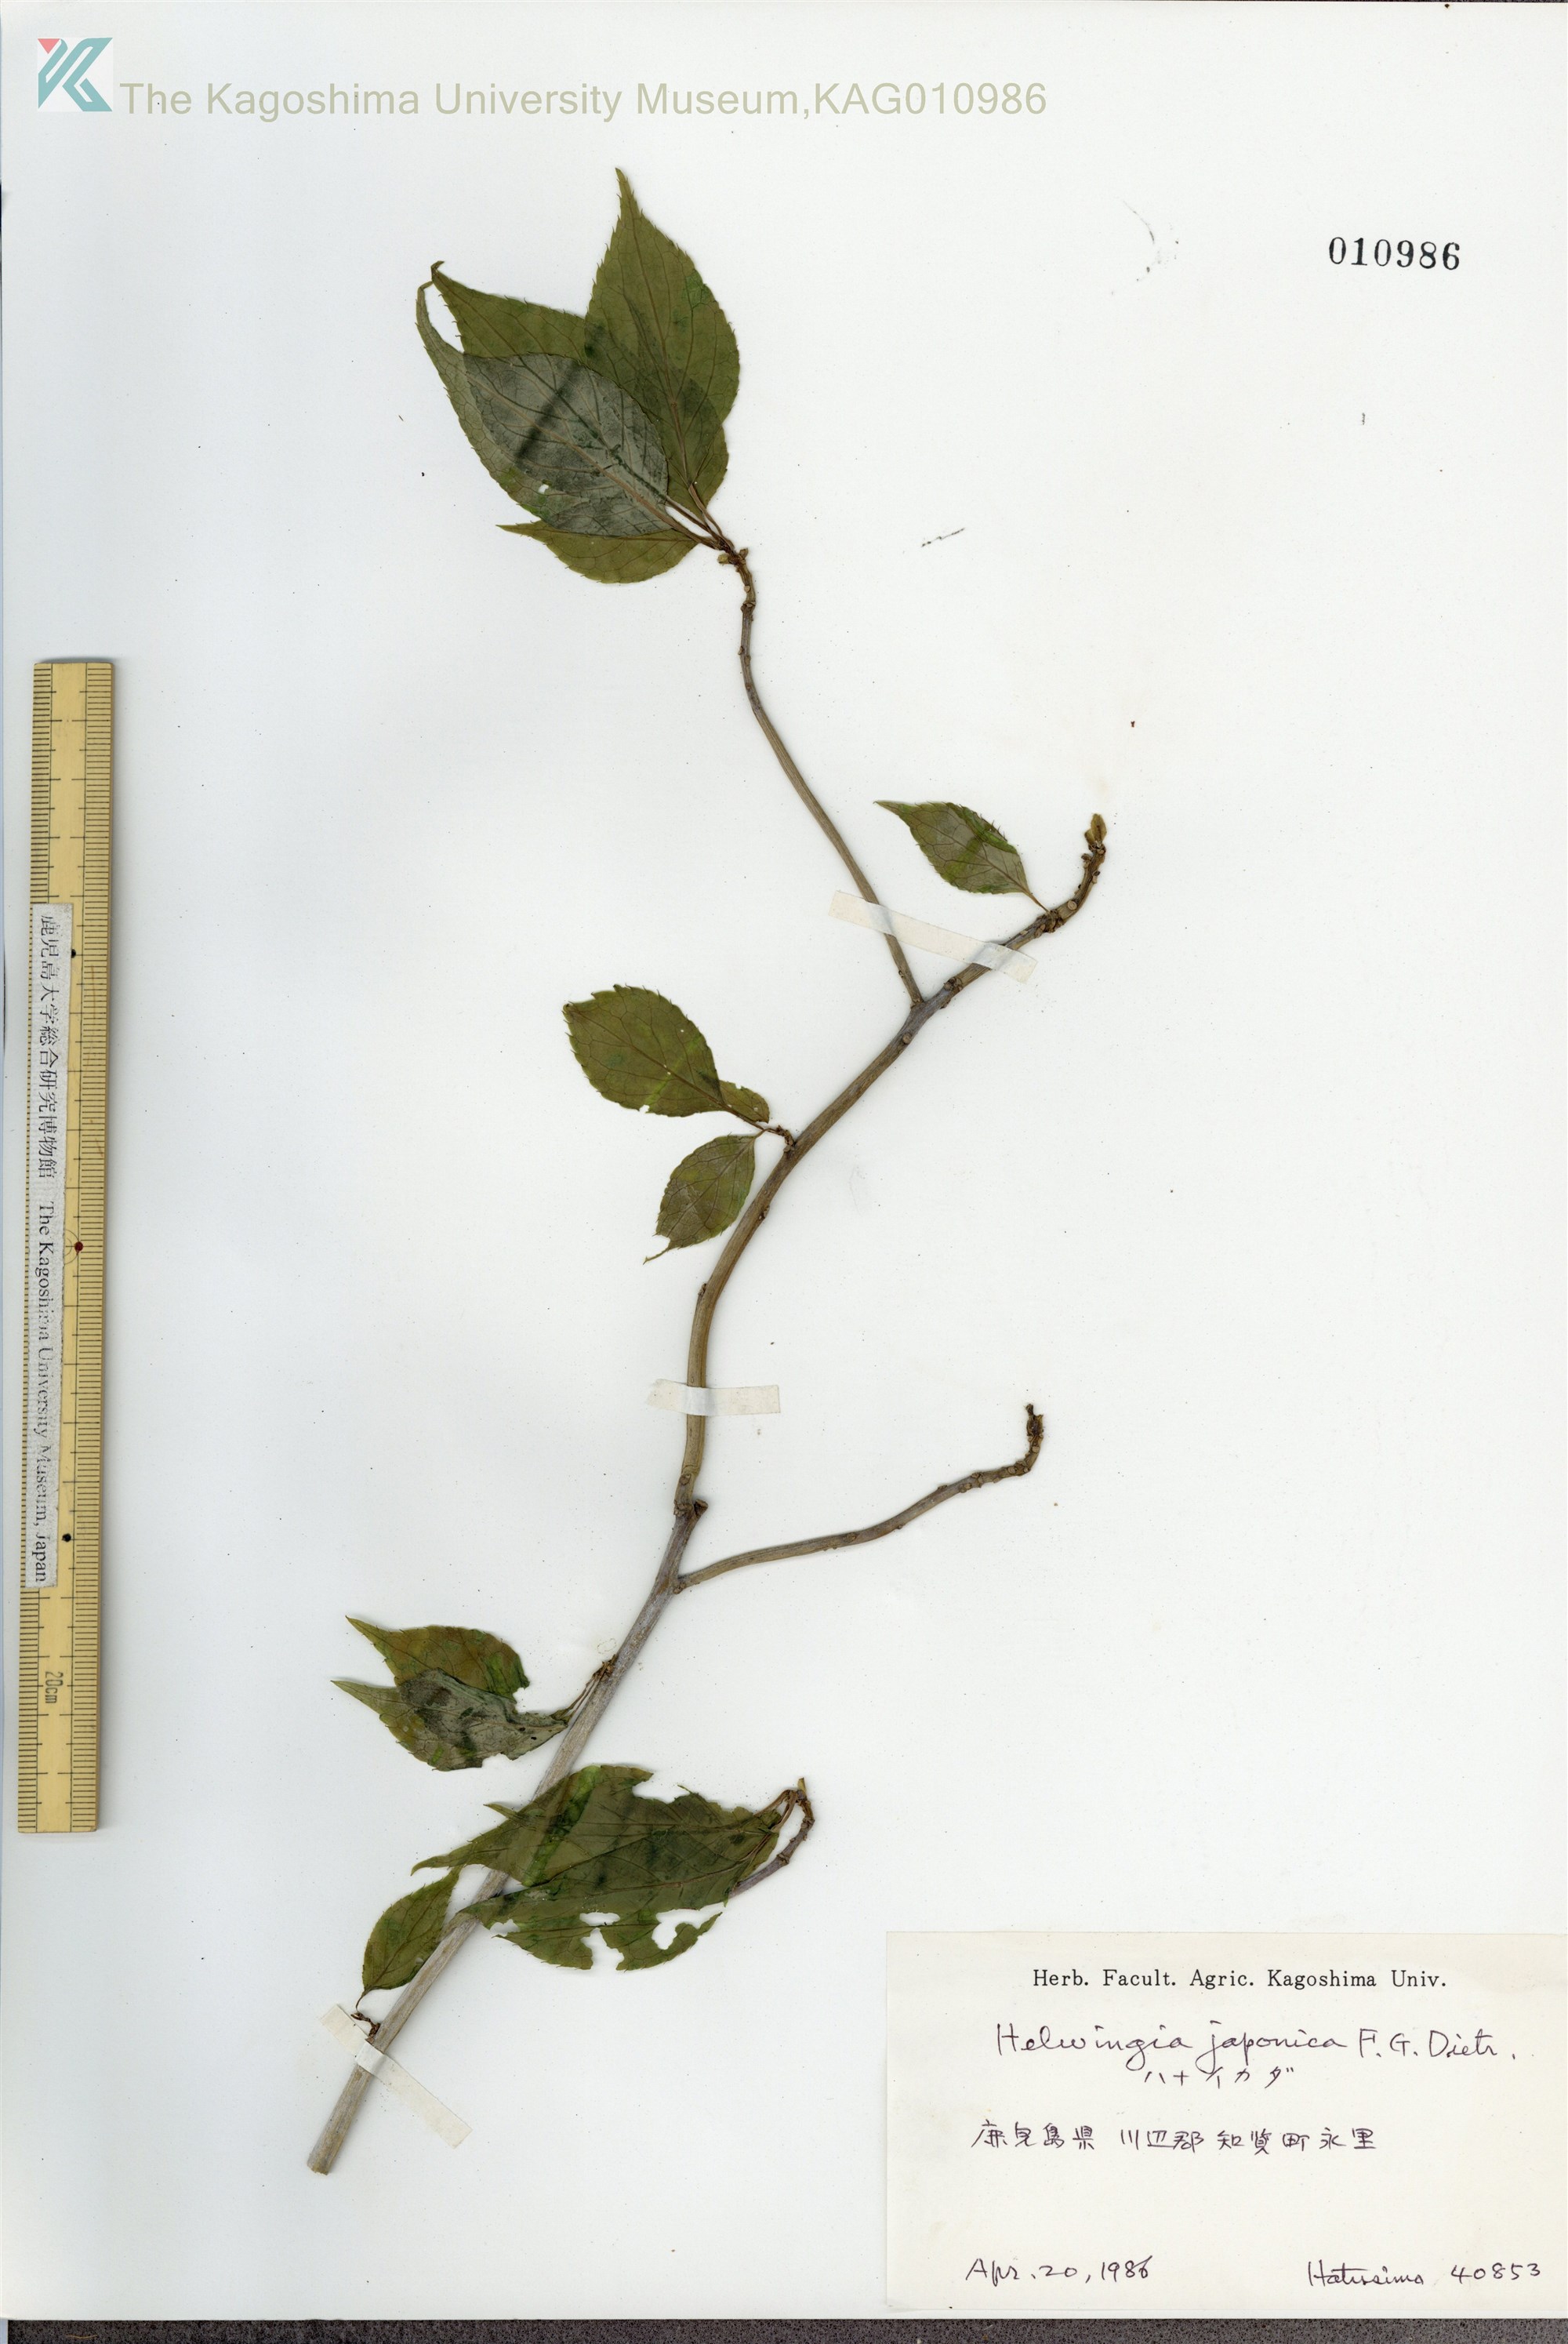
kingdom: Plantae
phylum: Tracheophyta
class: Magnoliopsida
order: Aquifoliales
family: Helwingiaceae
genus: Helwingia
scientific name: Helwingia japonica
